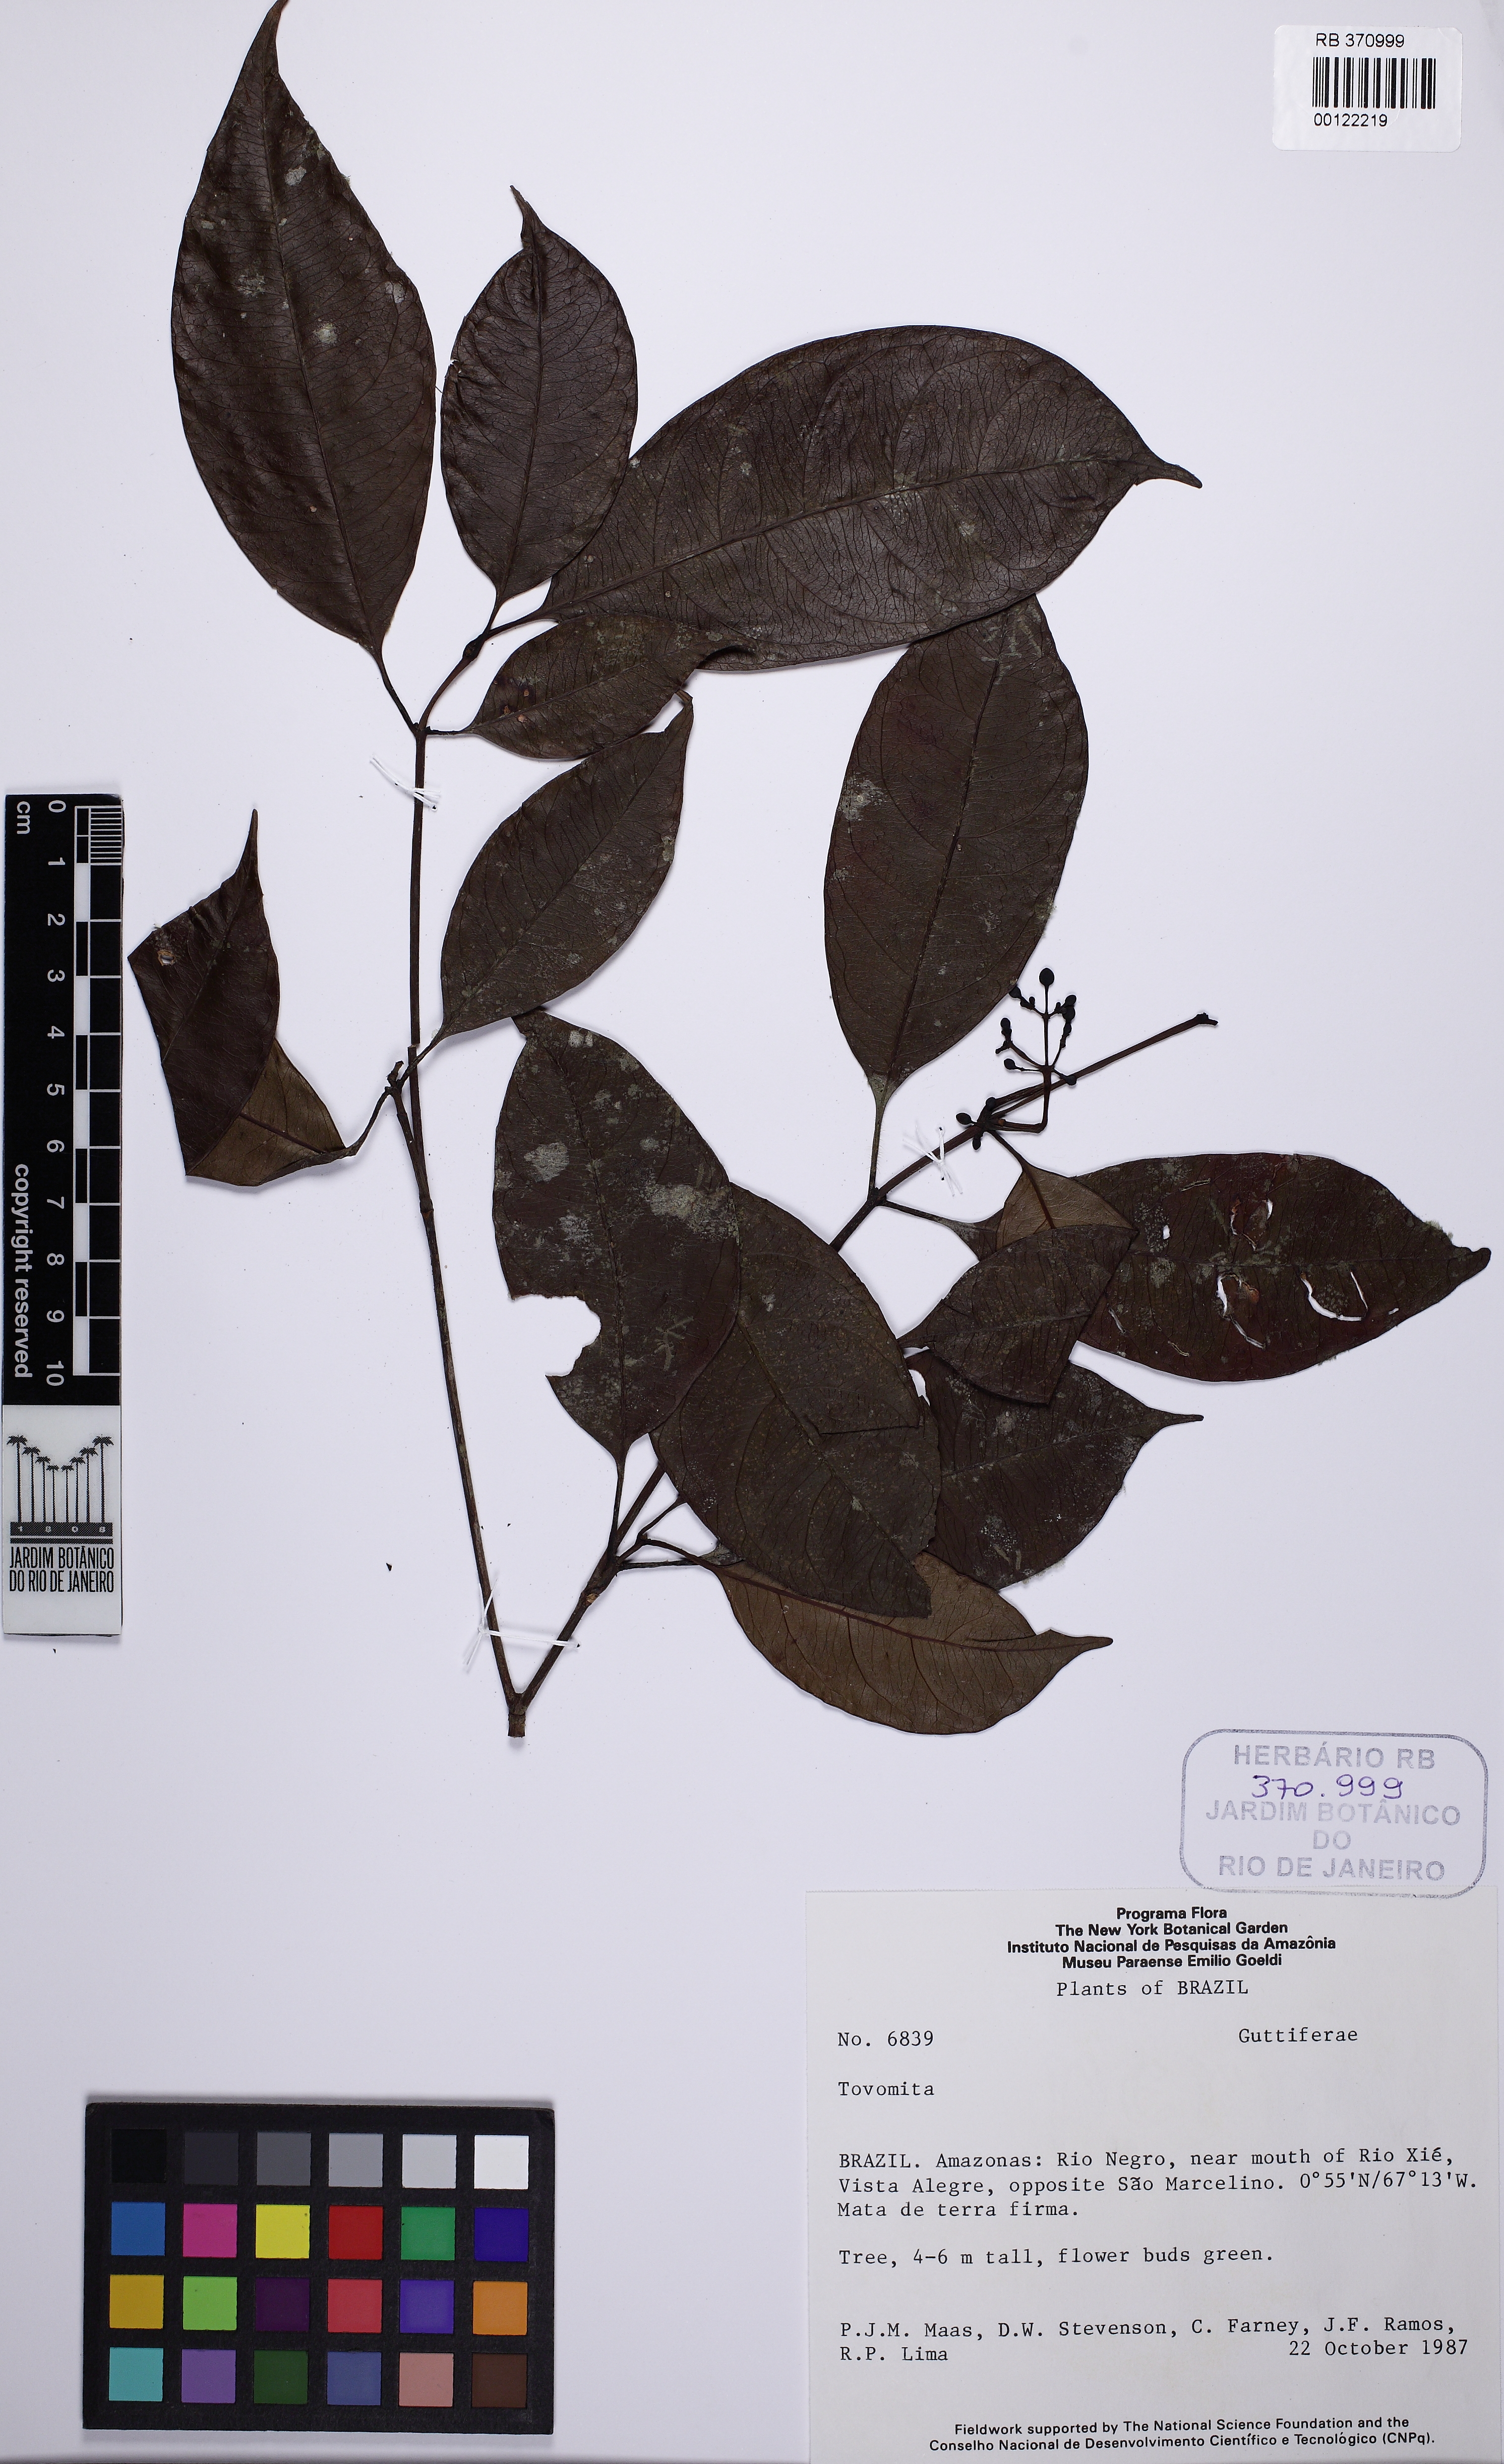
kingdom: Plantae
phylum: Tracheophyta
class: Magnoliopsida
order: Malpighiales
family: Clusiaceae
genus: Tovomita
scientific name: Tovomita
